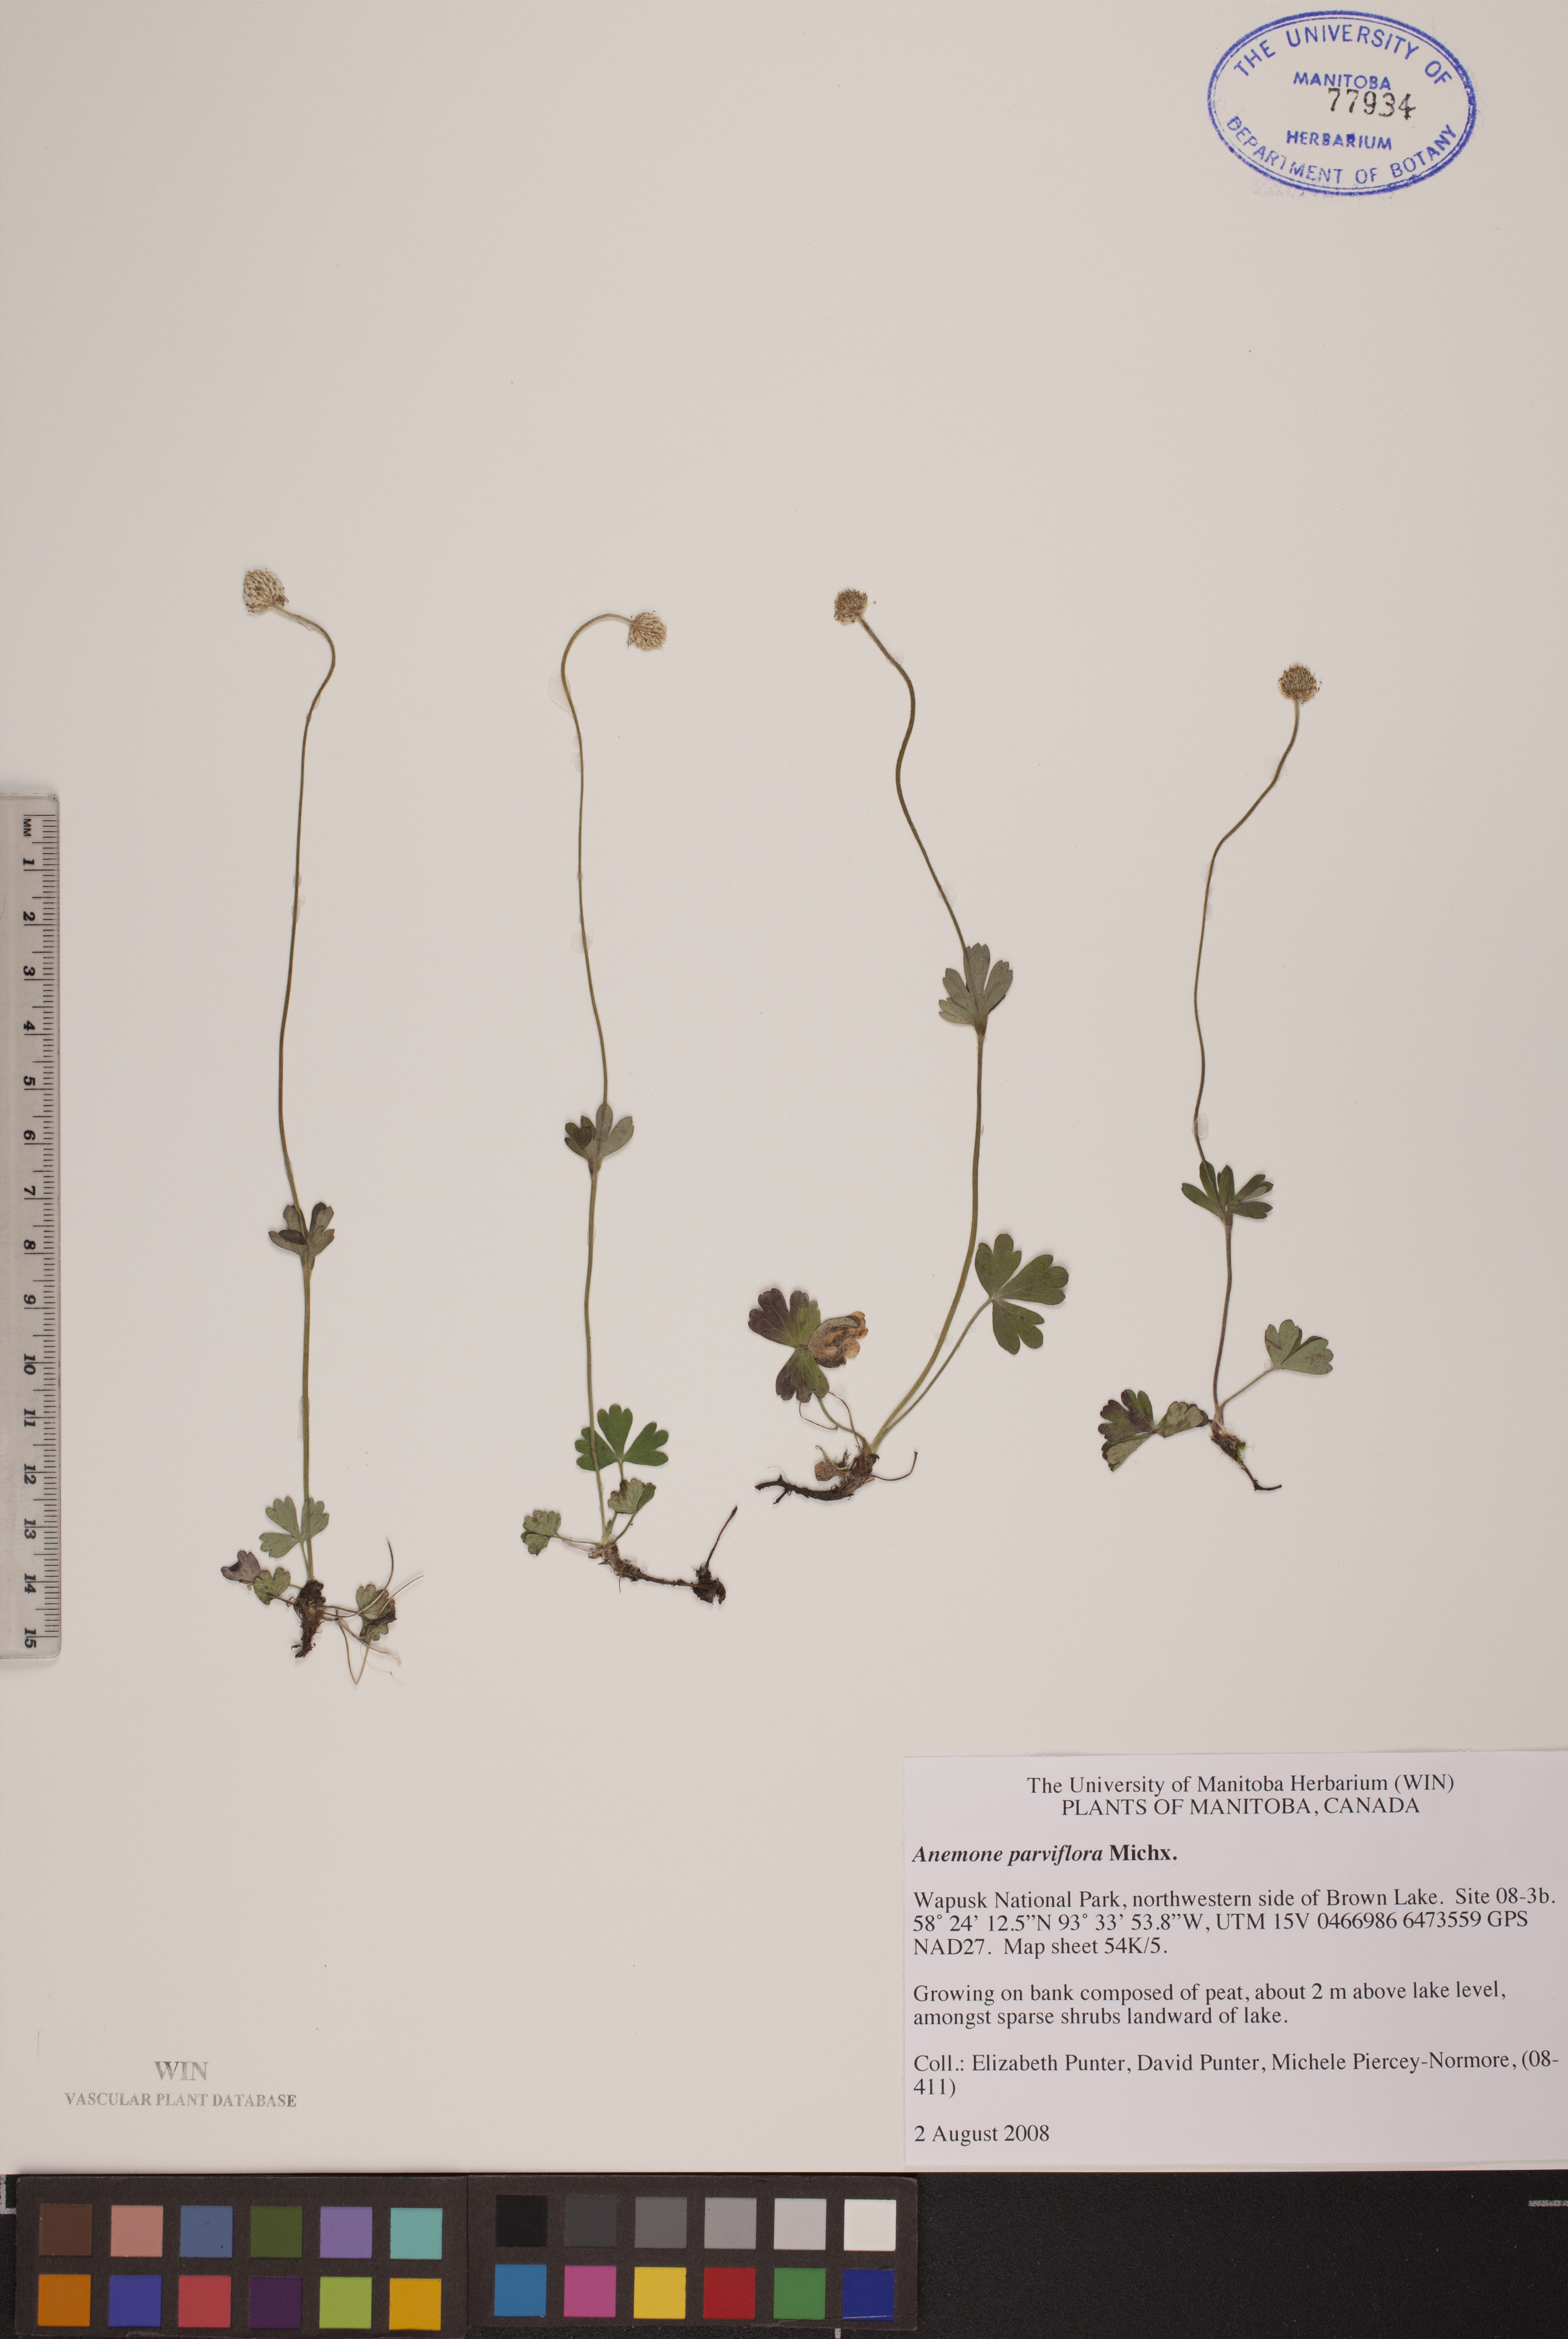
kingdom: Plantae
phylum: Tracheophyta
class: Magnoliopsida
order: Ranunculales
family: Ranunculaceae
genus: Anemone
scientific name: Anemone parviflora
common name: Northern anemone
